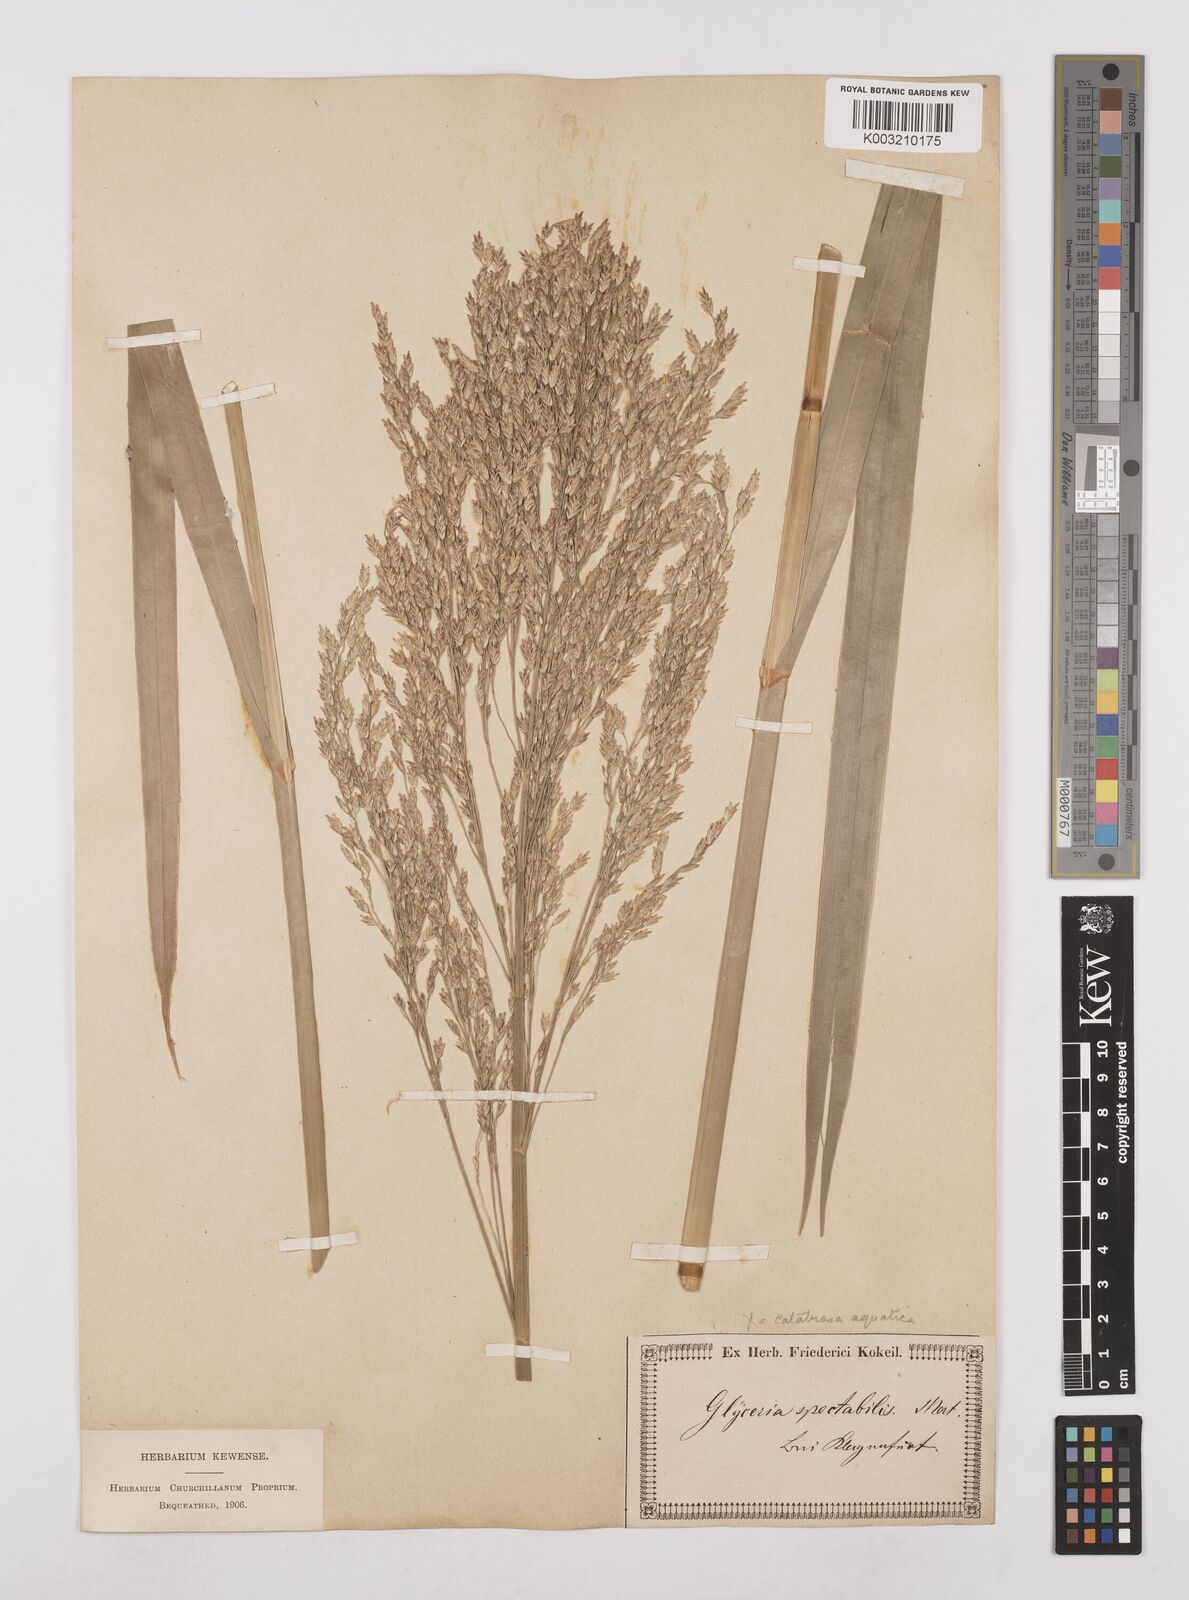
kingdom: Plantae
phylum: Tracheophyta
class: Liliopsida
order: Poales
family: Poaceae
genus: Glyceria
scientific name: Glyceria maxima
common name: Reed mannagrass
